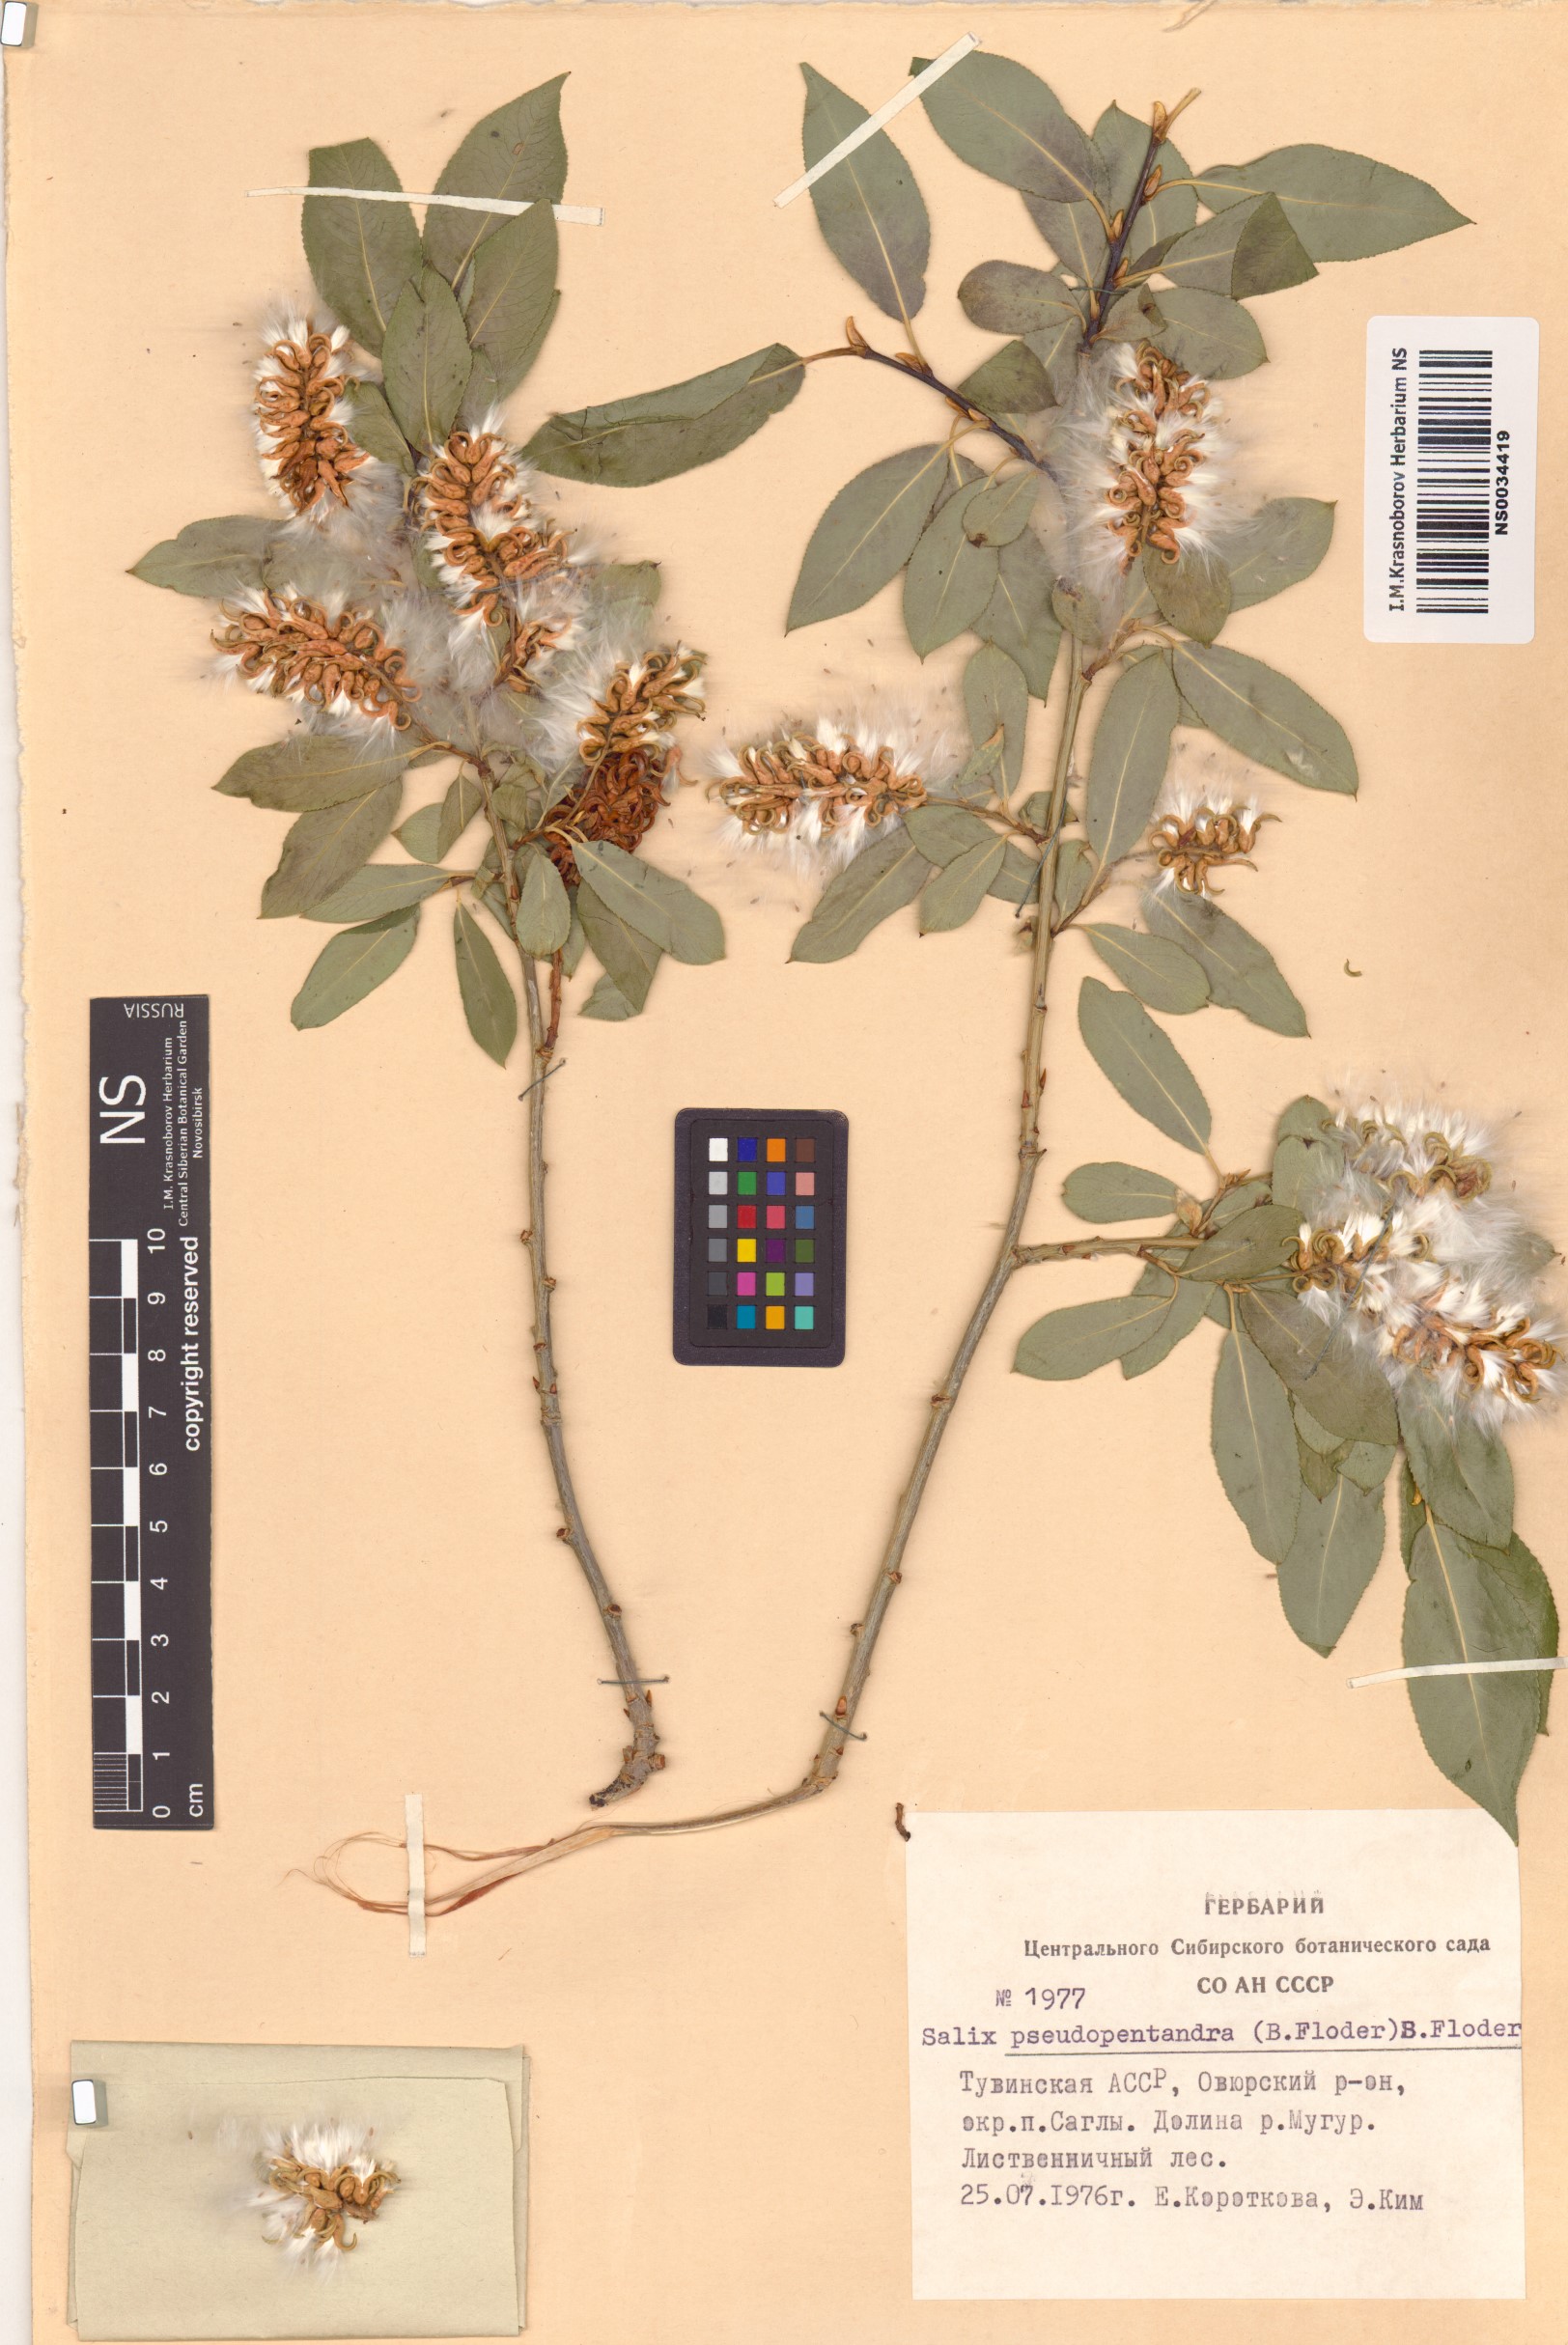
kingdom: Plantae
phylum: Tracheophyta
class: Magnoliopsida
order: Malpighiales
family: Salicaceae
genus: Salix
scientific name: Salix pseudopentandra
